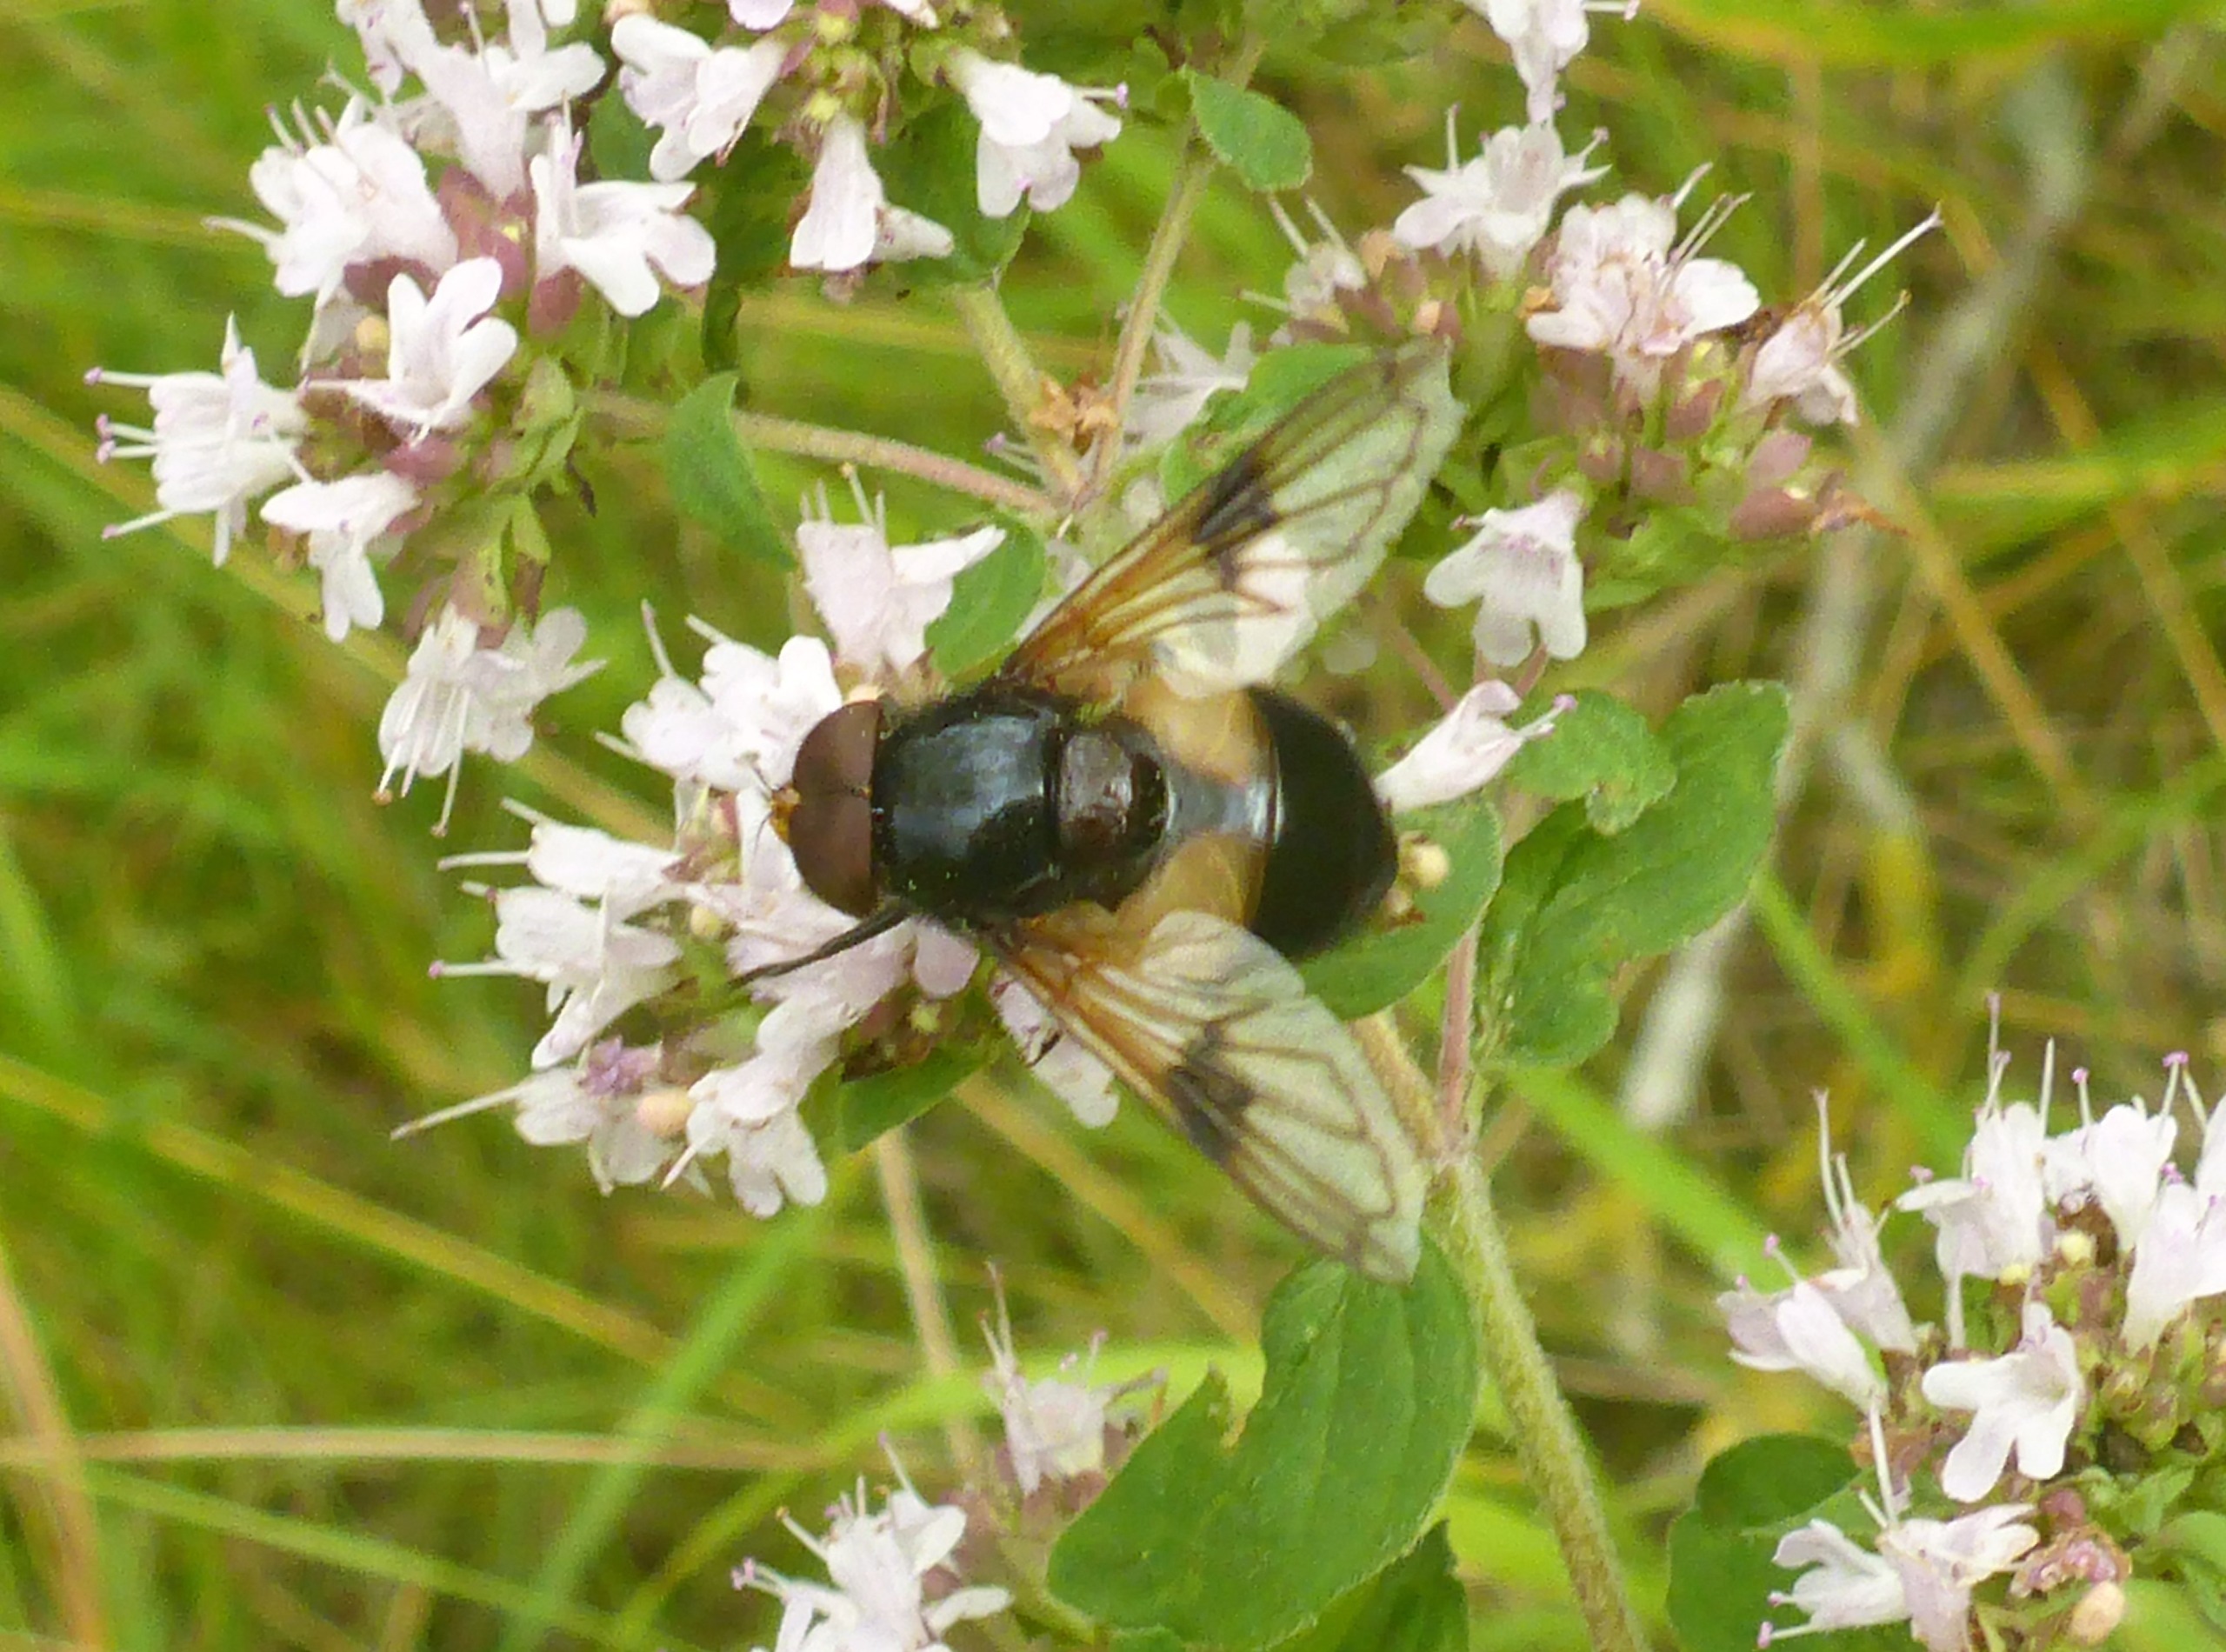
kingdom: Animalia
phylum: Arthropoda
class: Insecta
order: Diptera
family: Syrphidae
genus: Volucella
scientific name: Volucella pellucens
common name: Hvidbåndet humlesvirreflue
